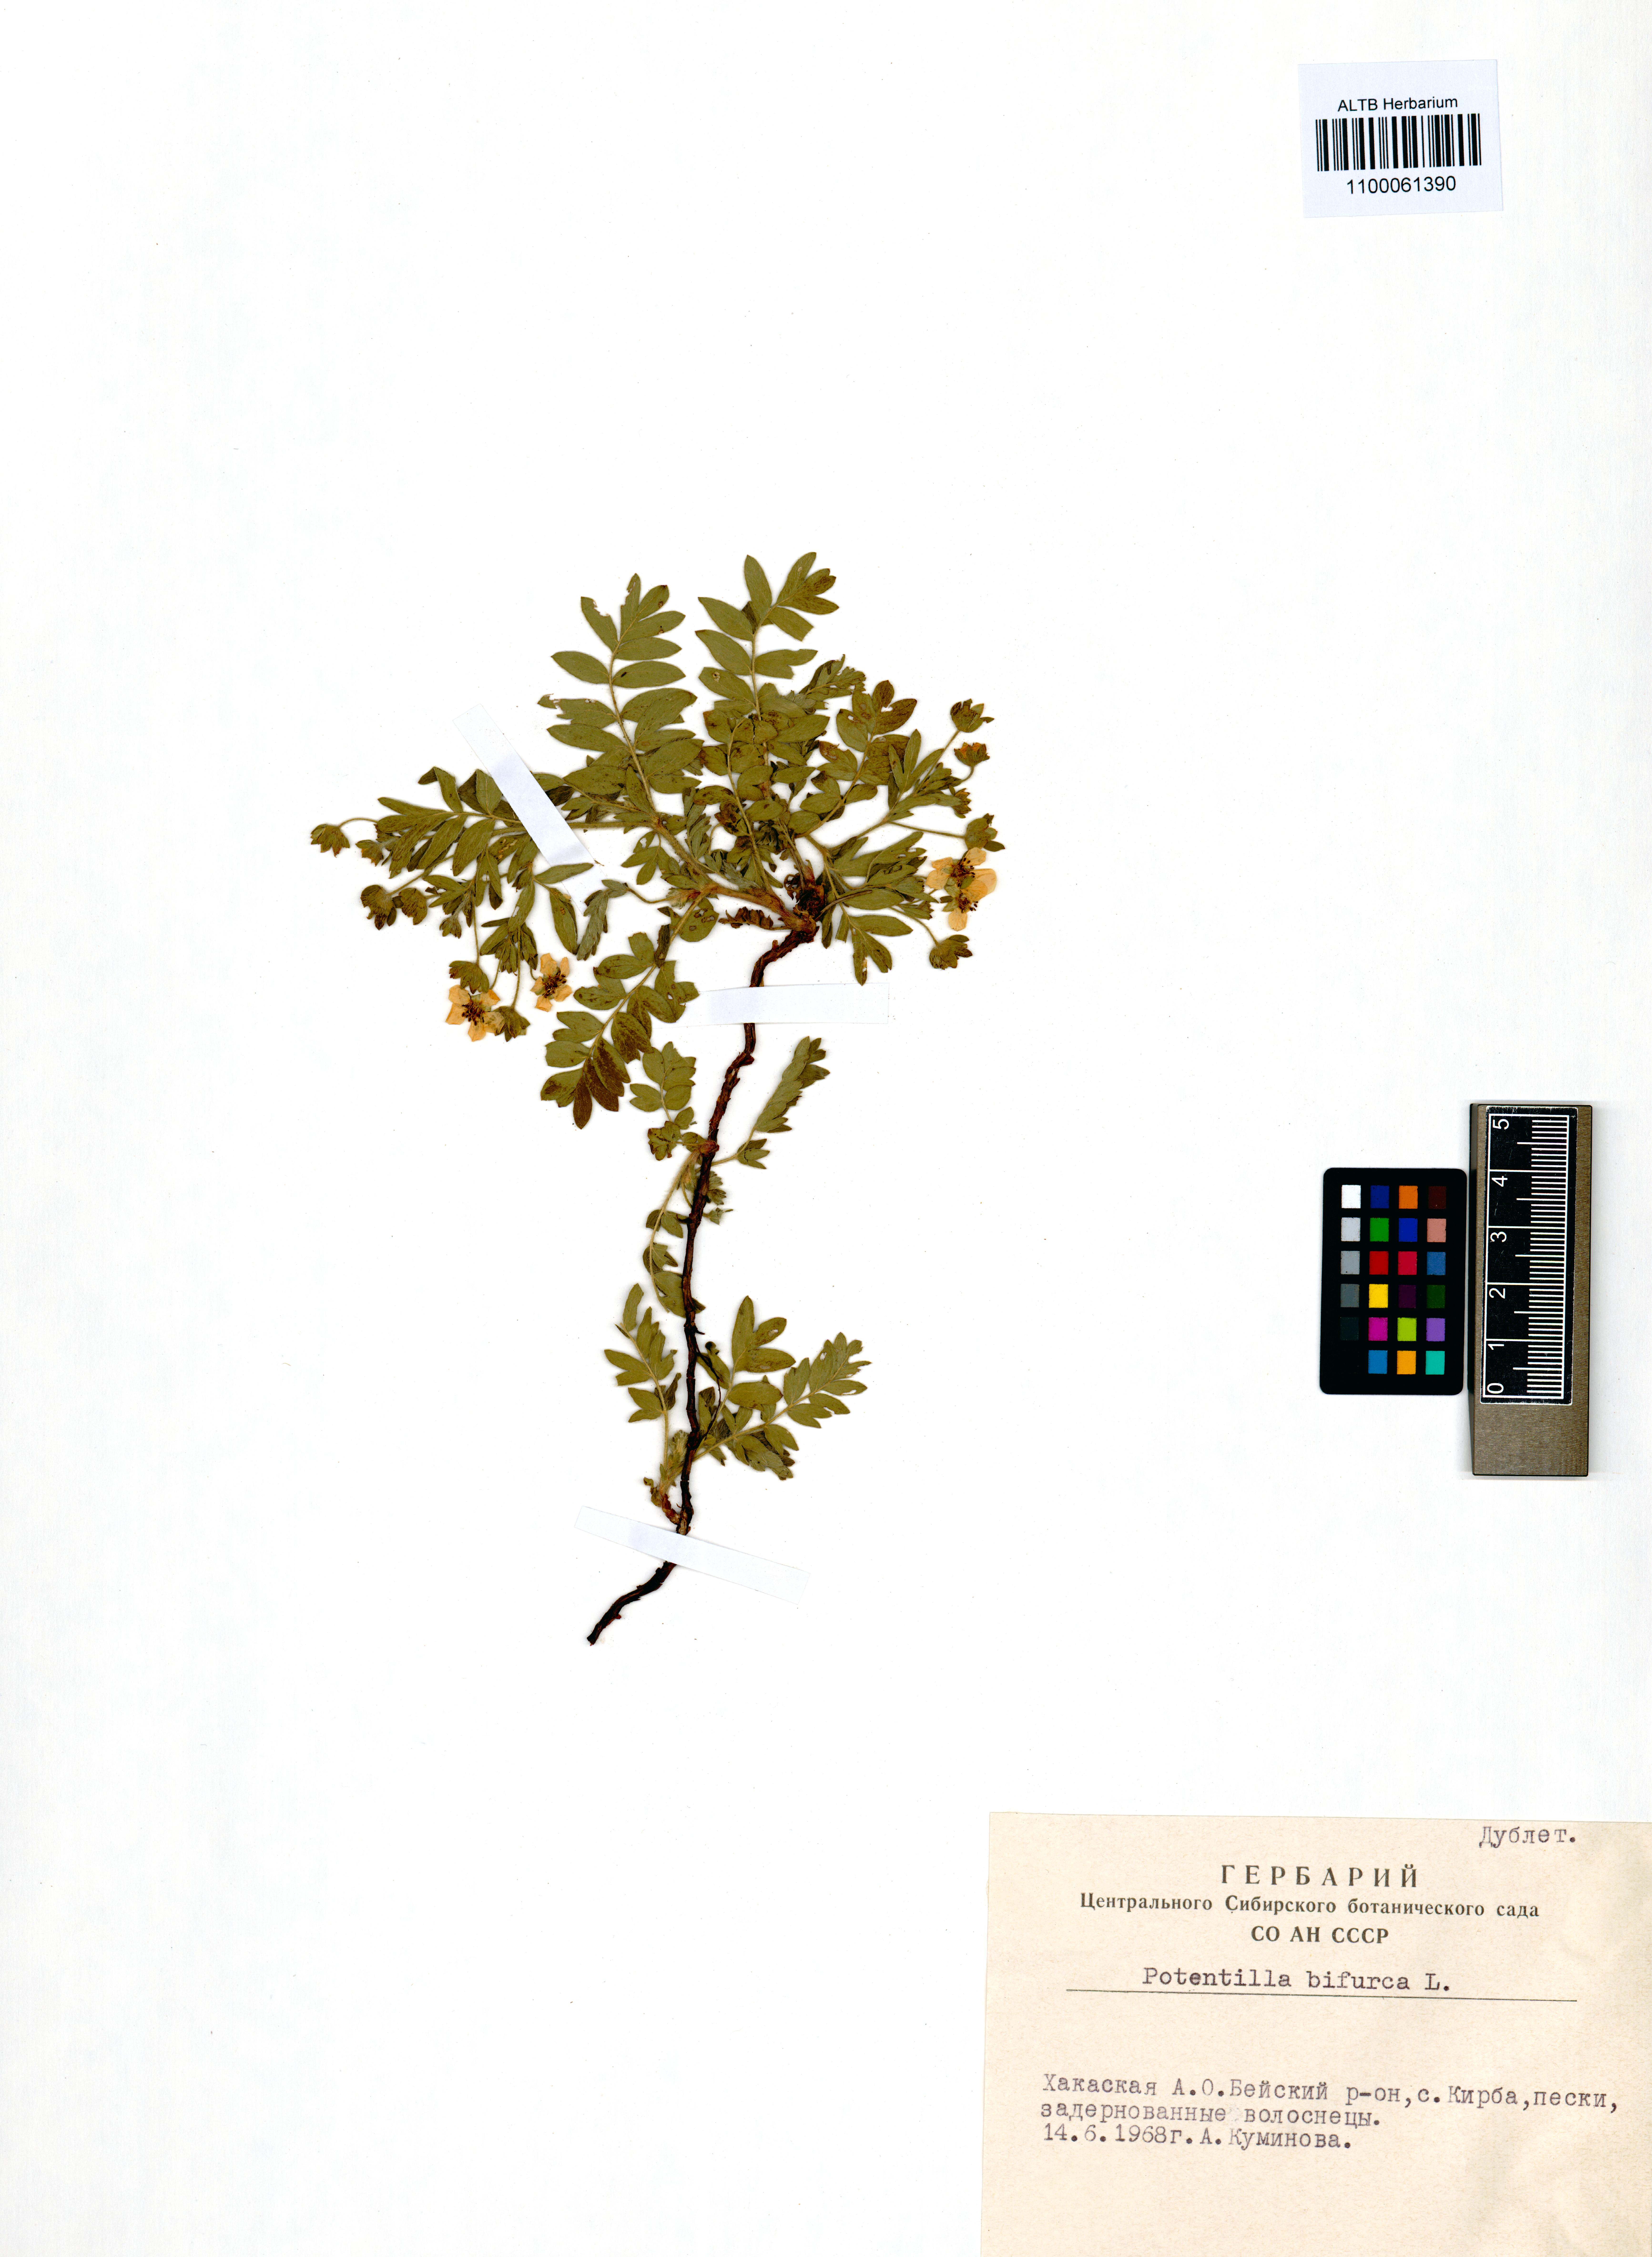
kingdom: Plantae
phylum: Tracheophyta
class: Magnoliopsida
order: Rosales
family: Rosaceae
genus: Sibbaldianthe
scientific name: Sibbaldianthe bifurca
